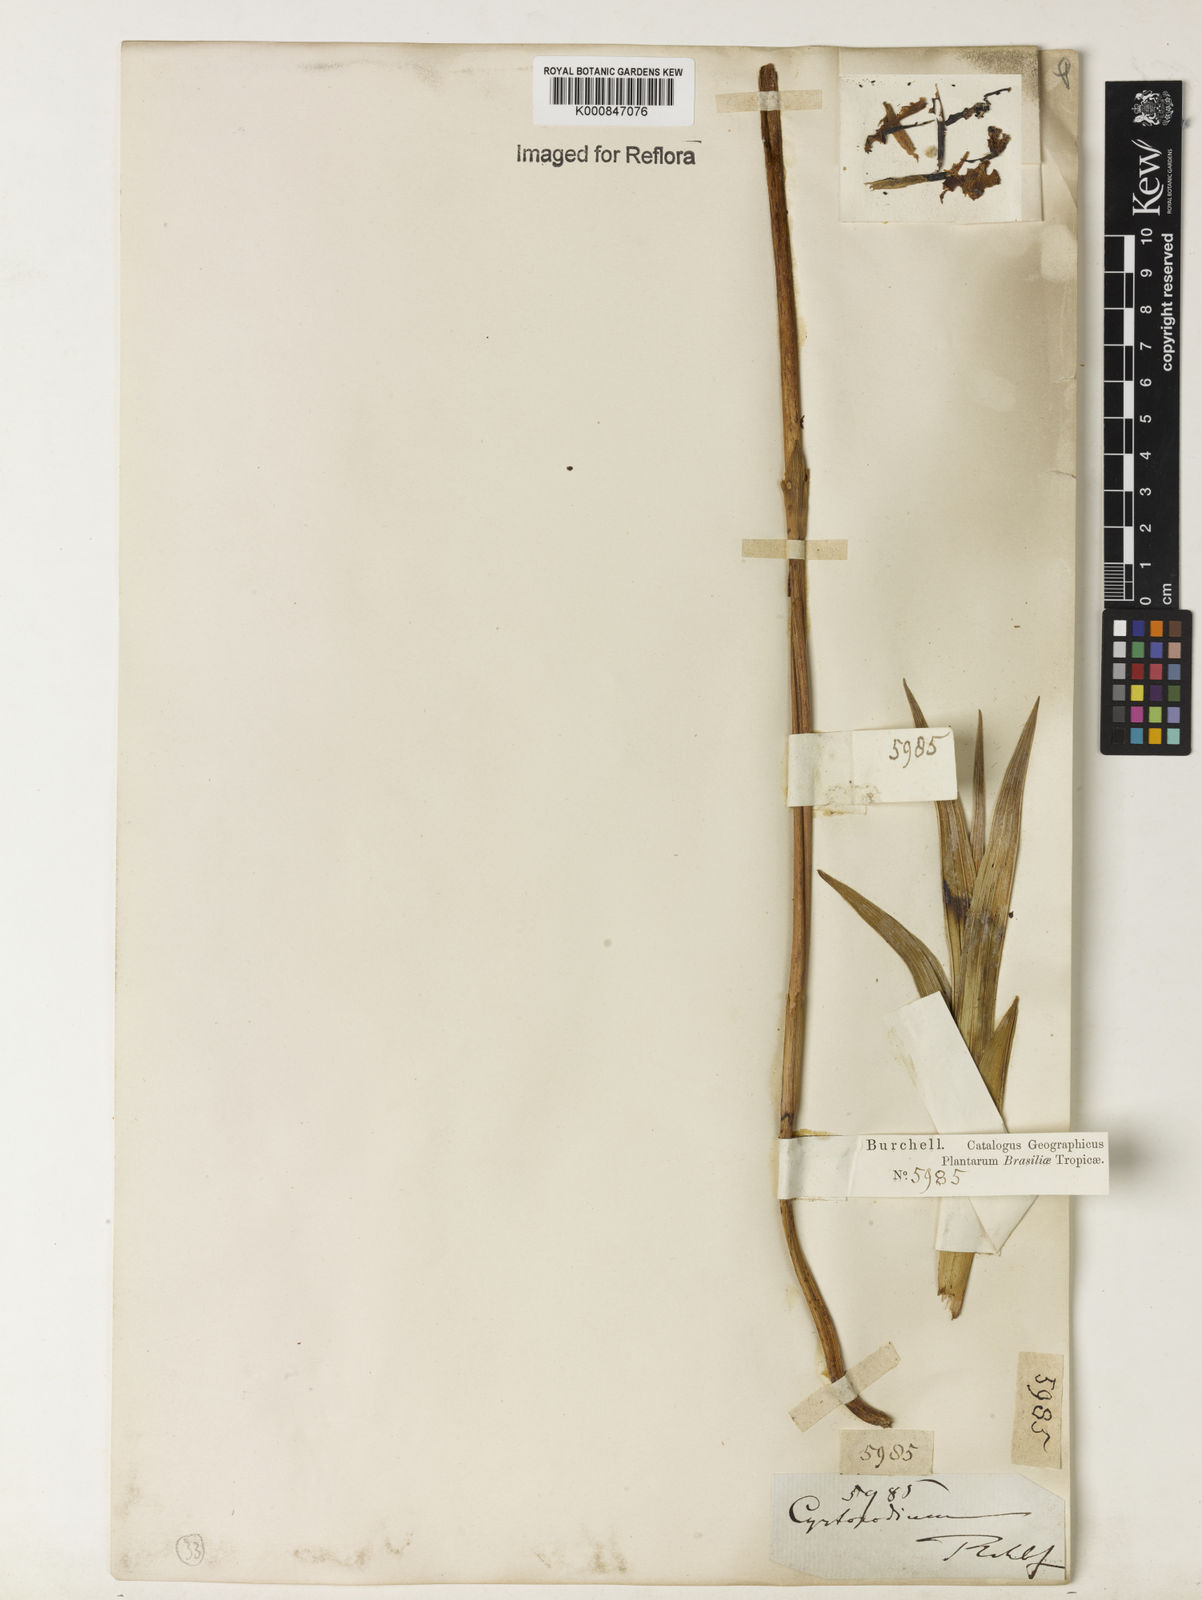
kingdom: Plantae
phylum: Tracheophyta
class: Liliopsida
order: Asparagales
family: Orchidaceae
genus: Cyrtopodium
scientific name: Cyrtopodium
